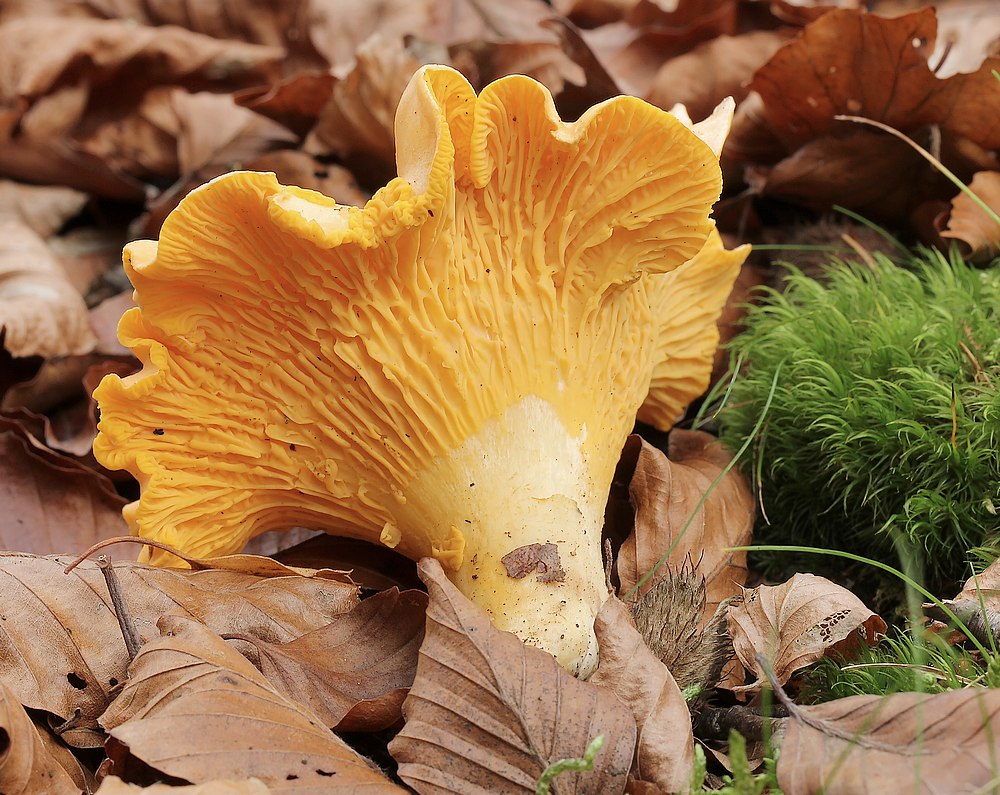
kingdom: Fungi
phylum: Basidiomycota
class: Agaricomycetes
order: Cantharellales
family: Hydnaceae
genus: Cantharellus
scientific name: Cantharellus cibarius
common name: almindelig kantarel
